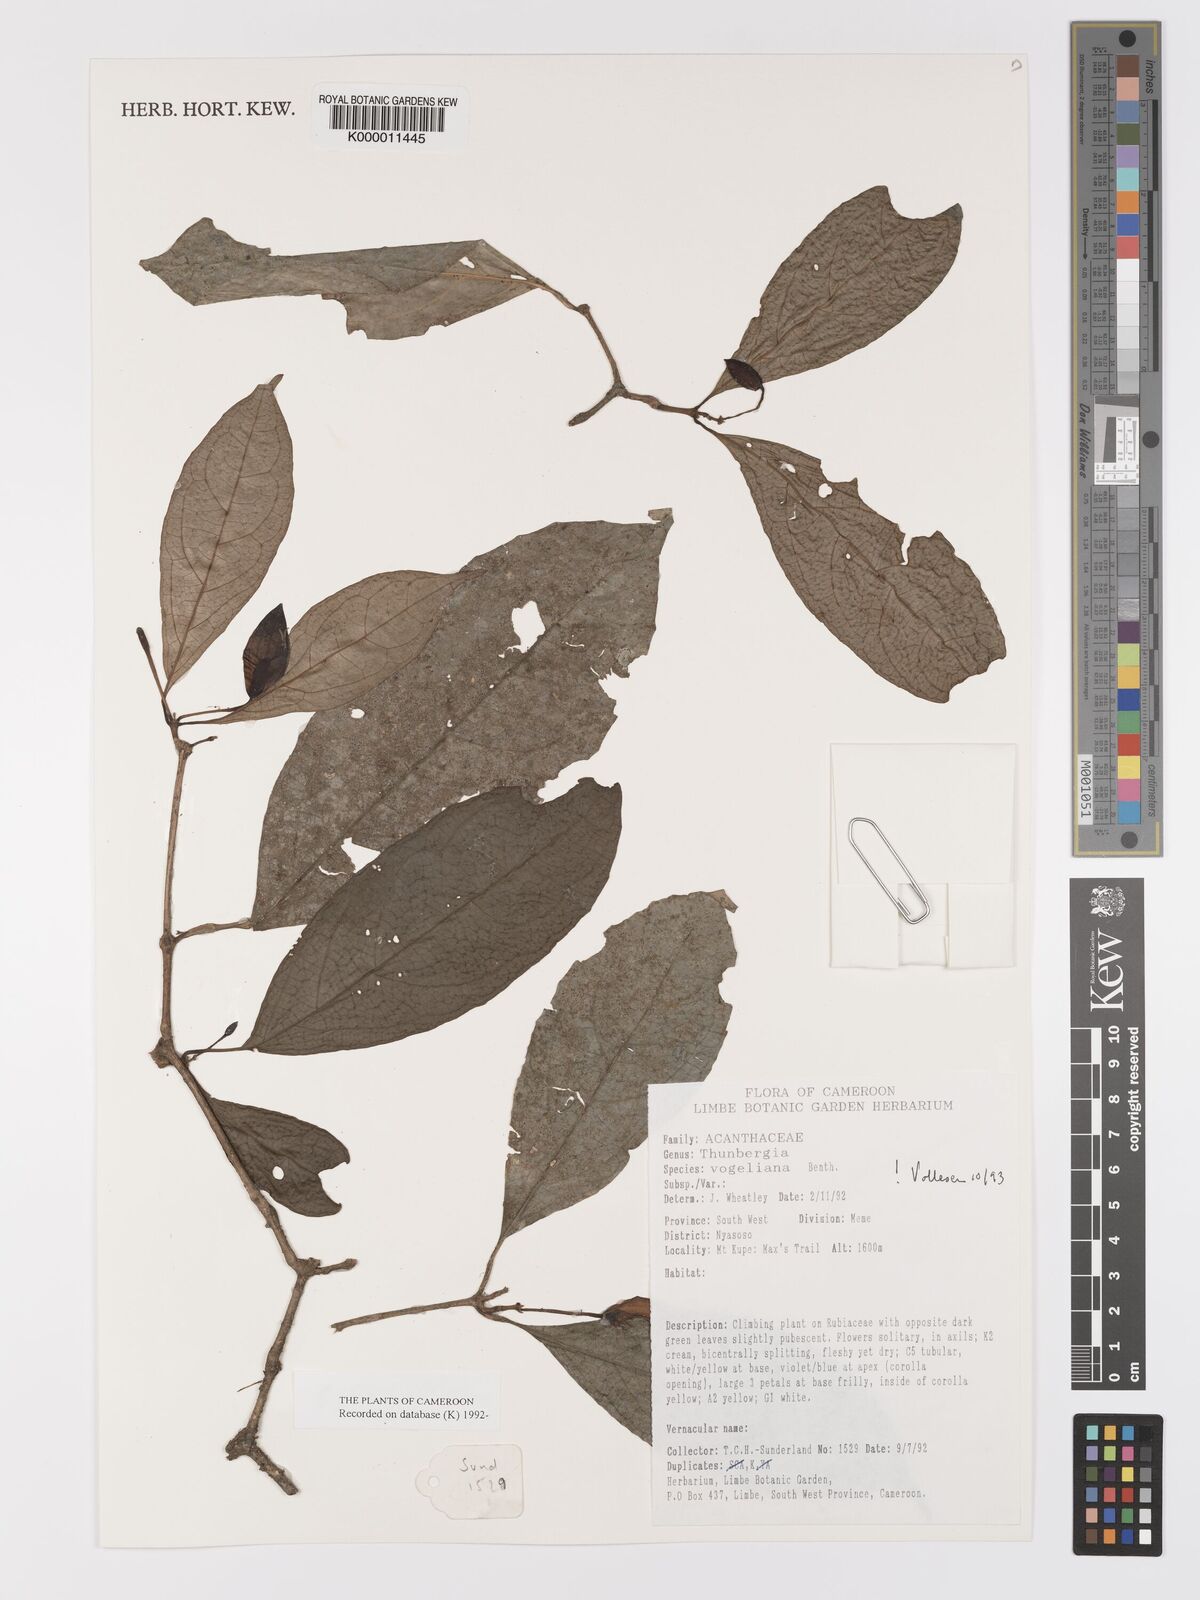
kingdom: Plantae
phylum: Tracheophyta
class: Magnoliopsida
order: Lamiales
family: Acanthaceae
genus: Thunbergia
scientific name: Thunbergia vogeliana
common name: Acanthaceae
